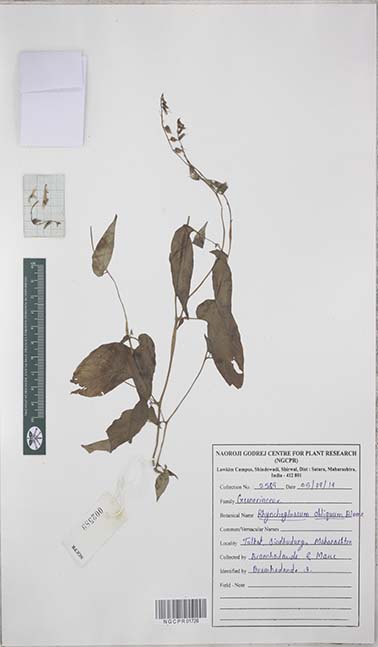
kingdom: Plantae
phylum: Tracheophyta
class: Magnoliopsida
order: Lamiales
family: Gesneriaceae
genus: Rhynchoglossum
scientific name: Rhynchoglossum obliquum
